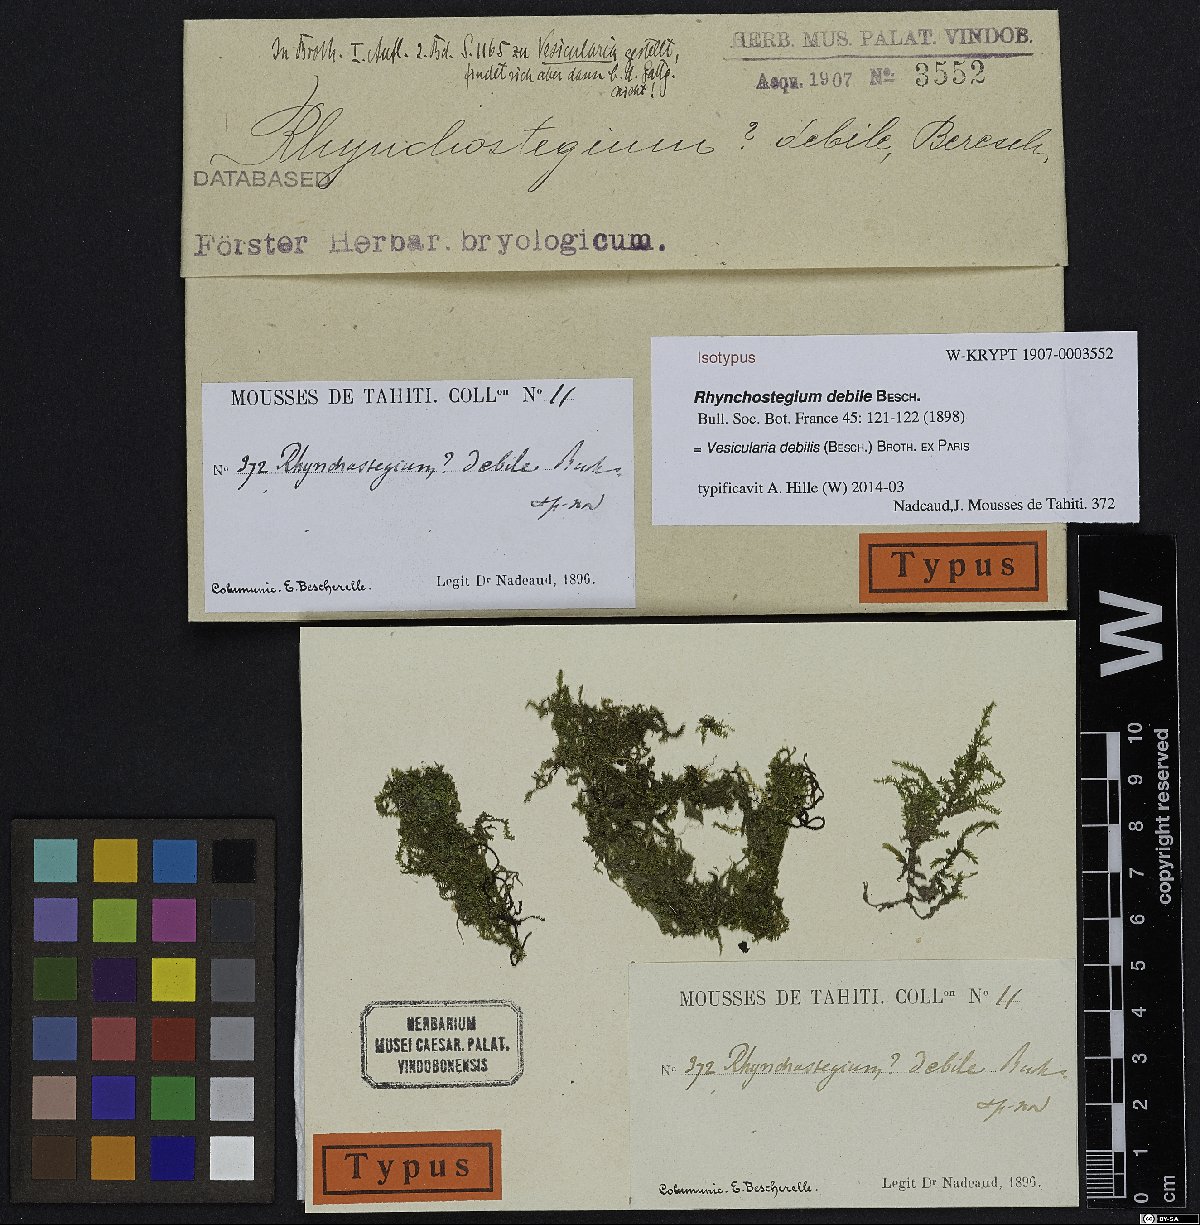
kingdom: Plantae
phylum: Bryophyta
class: Bryopsida
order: Hypnales
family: Hypnaceae
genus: Vesicularia
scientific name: Vesicularia debilis
